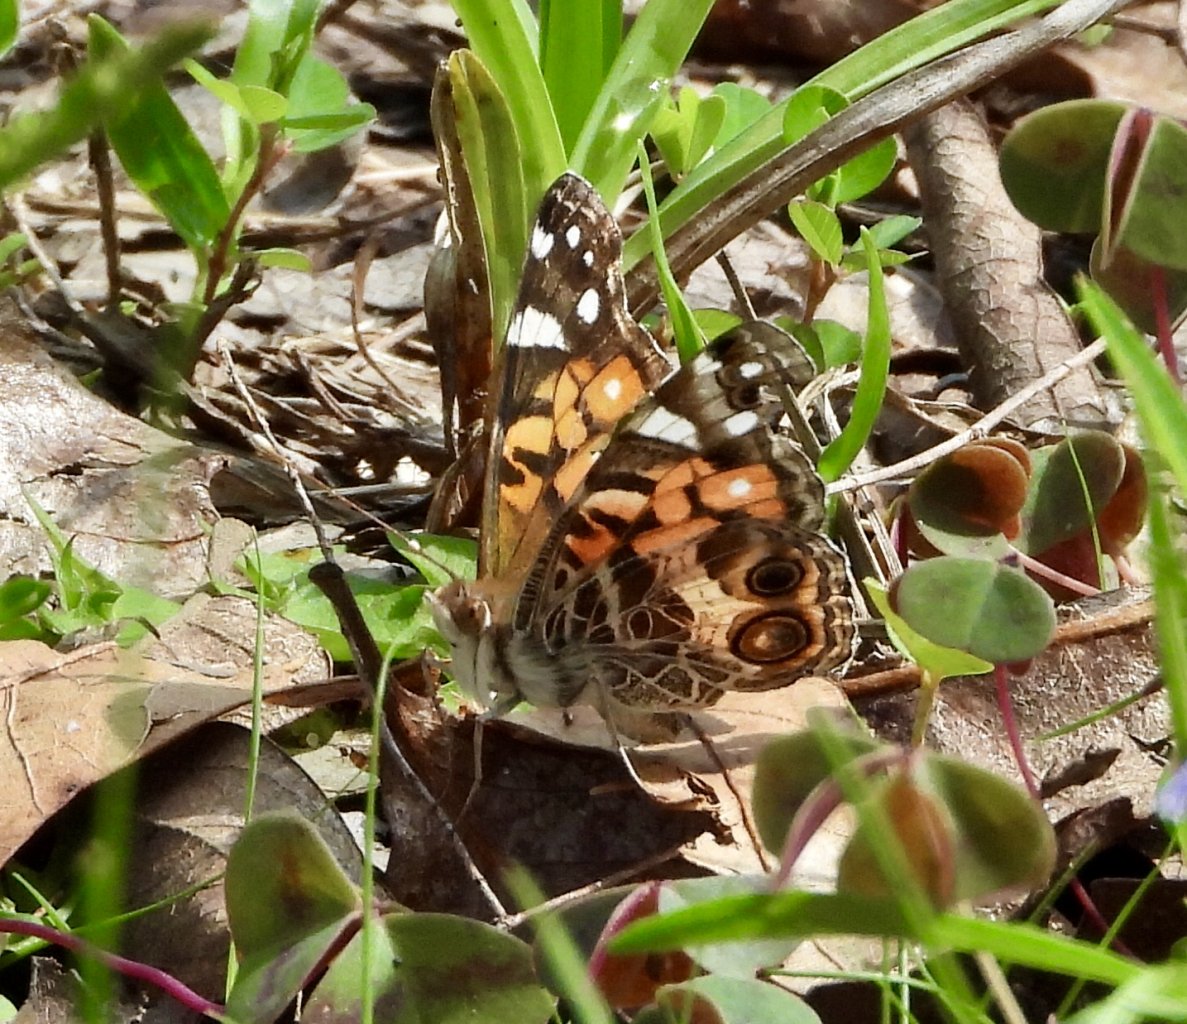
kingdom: Animalia
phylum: Arthropoda
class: Insecta
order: Lepidoptera
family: Nymphalidae
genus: Vanessa
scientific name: Vanessa virginiensis
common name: American Lady
